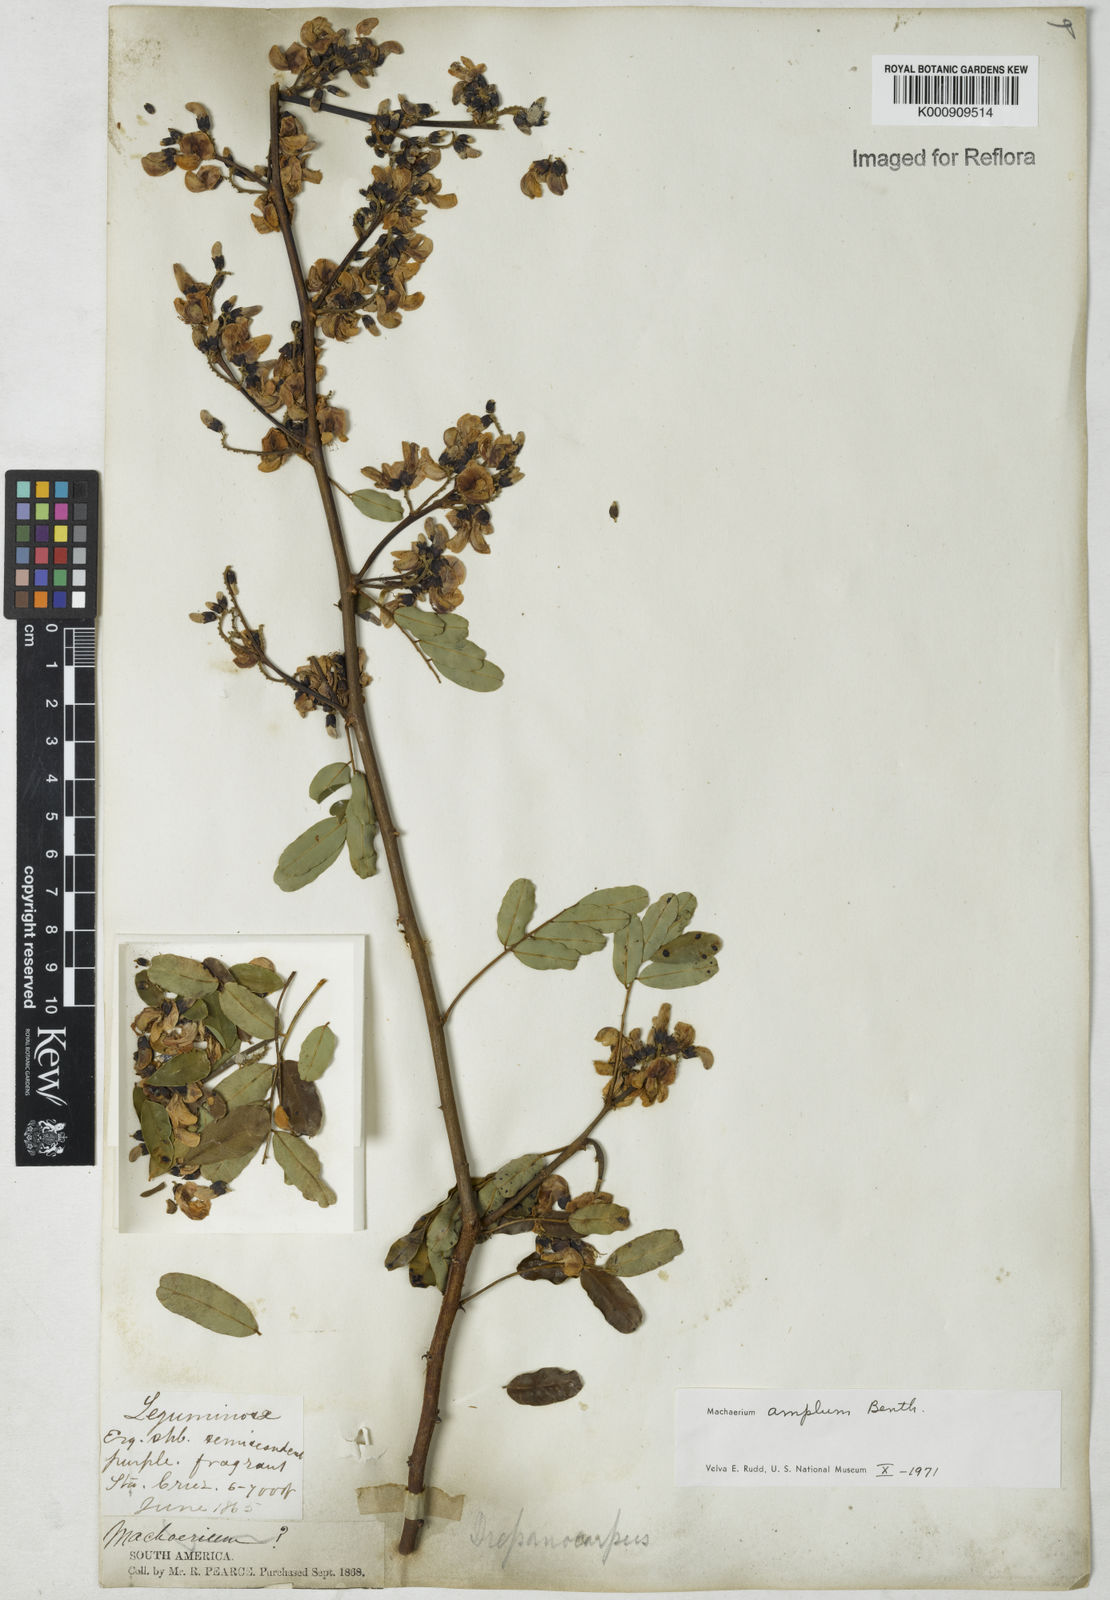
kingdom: Plantae
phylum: Tracheophyta
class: Magnoliopsida
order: Fabales
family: Fabaceae
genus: Machaerium
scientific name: Machaerium amplum
